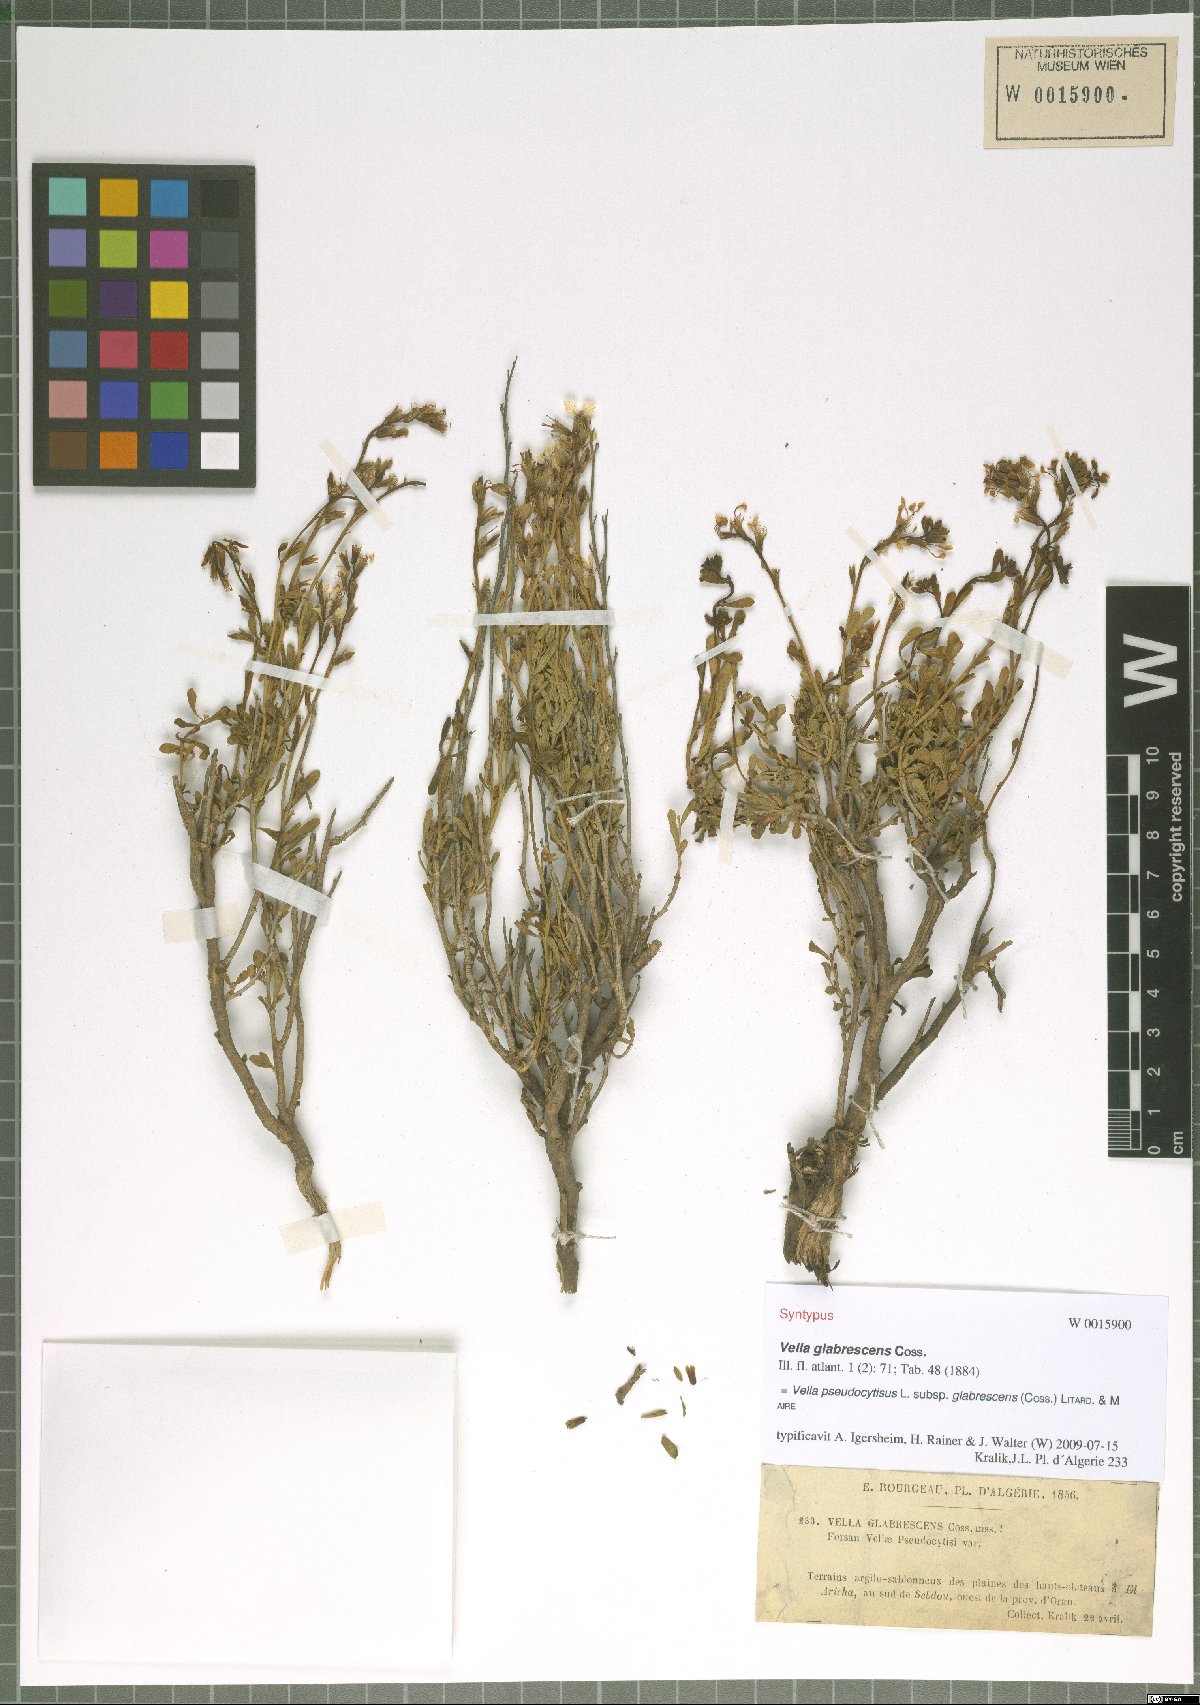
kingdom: Plantae
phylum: Tracheophyta
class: Magnoliopsida
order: Brassicales
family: Brassicaceae
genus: Vella
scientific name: Vella pseudocytisus
